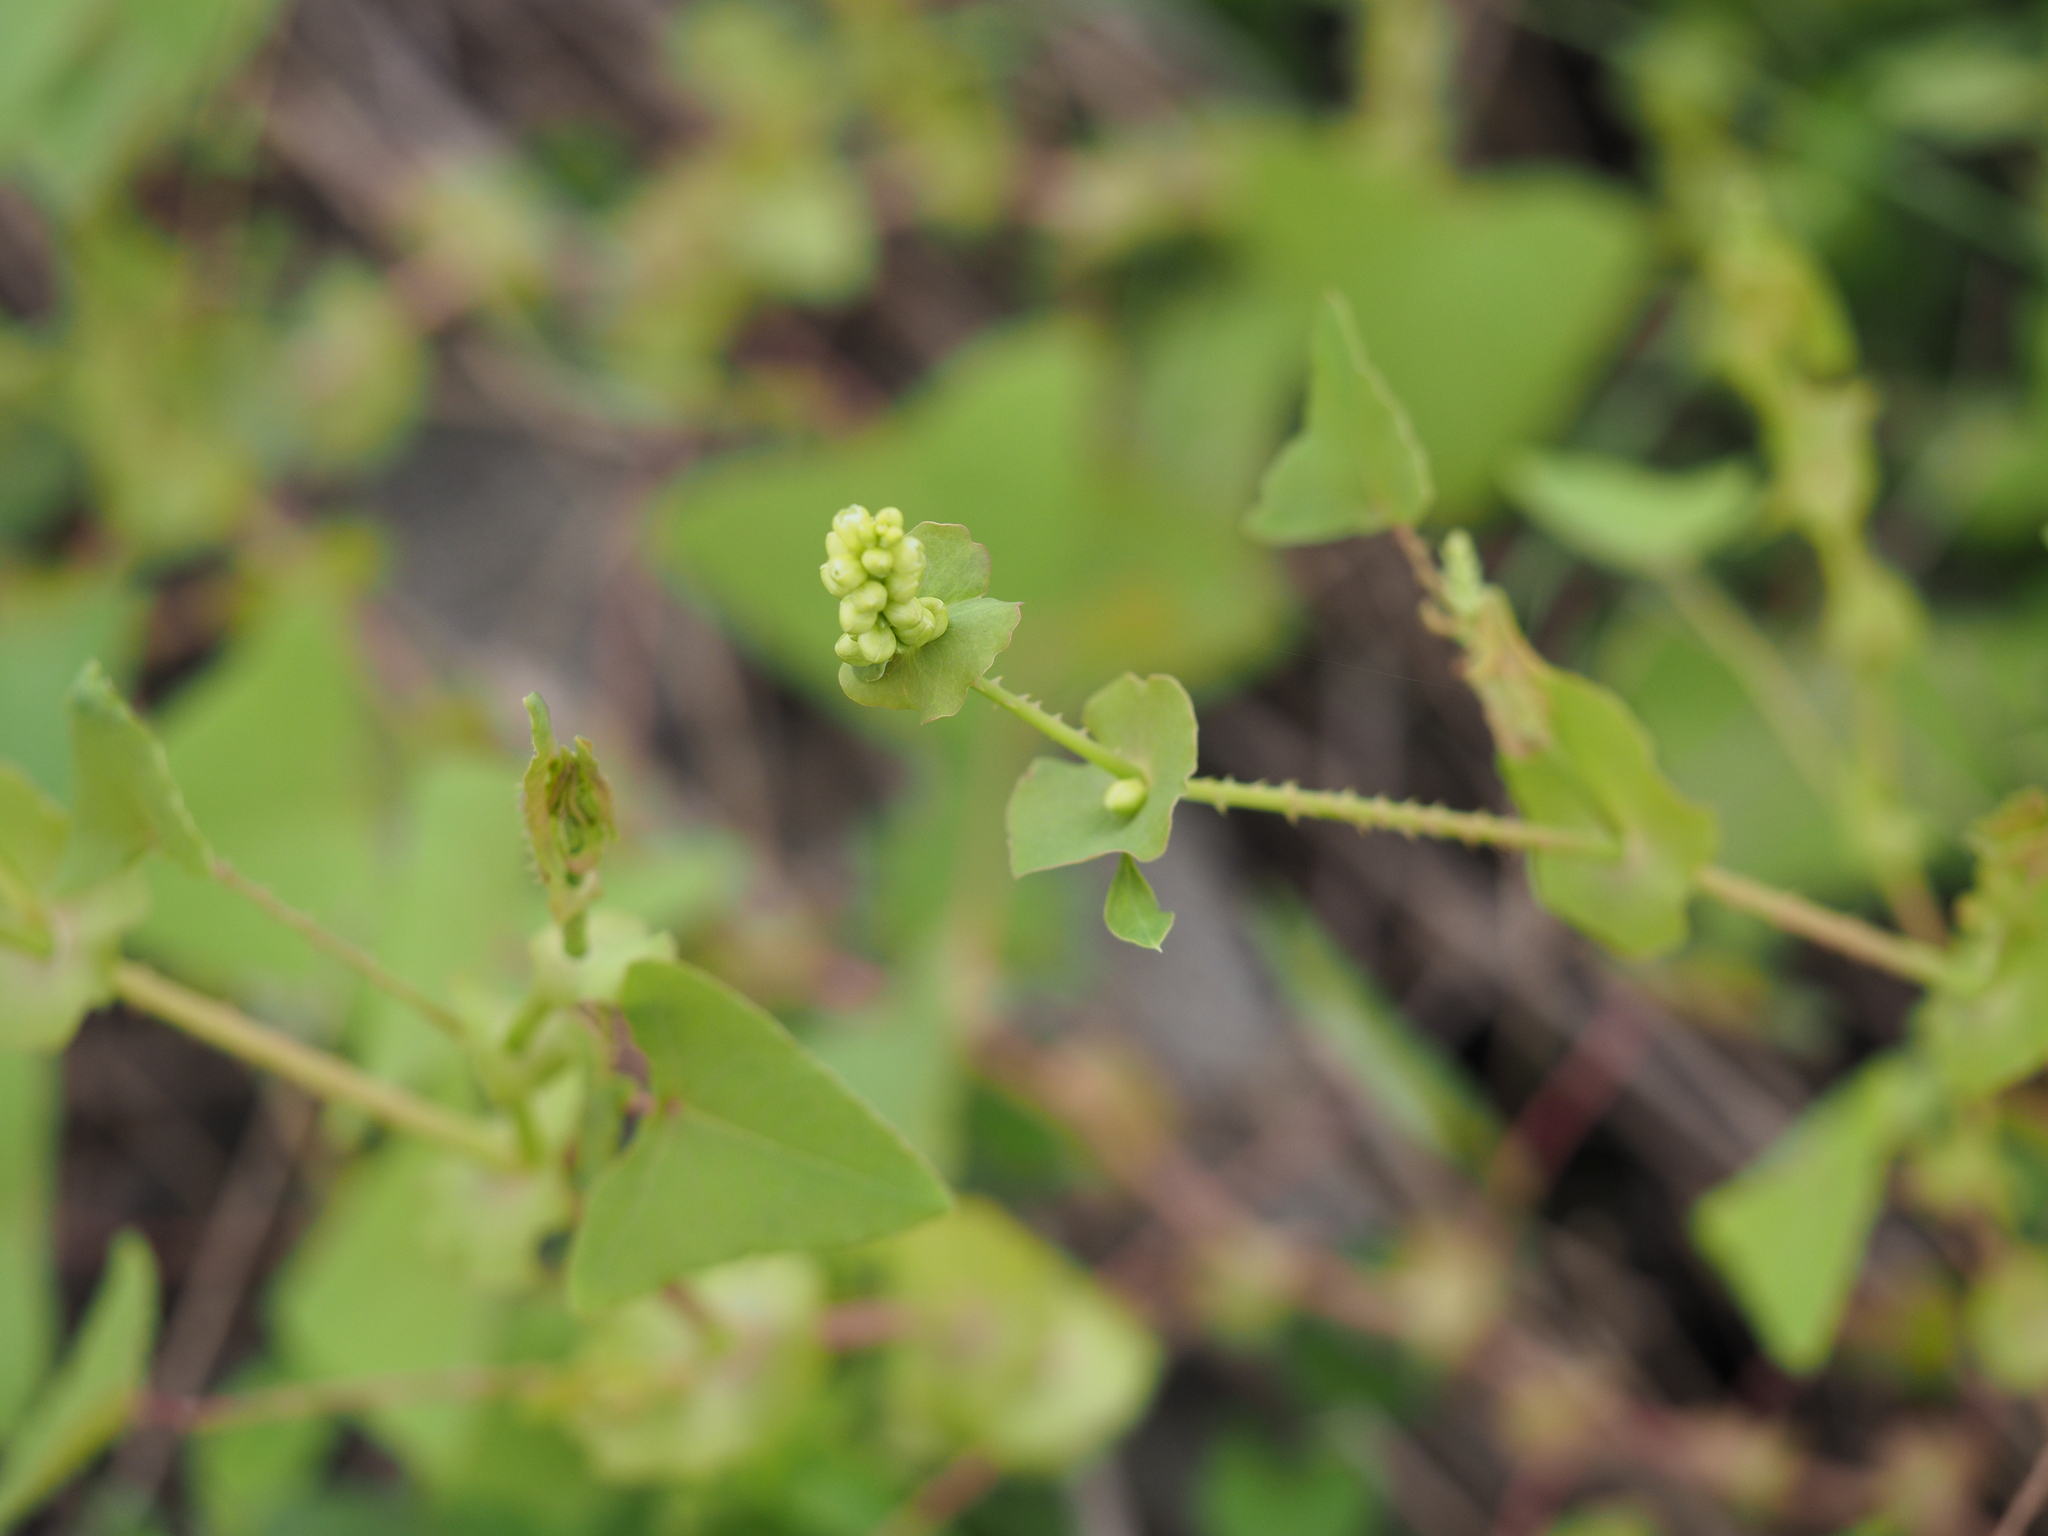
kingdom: Plantae
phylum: Tracheophyta
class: Magnoliopsida
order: Caryophyllales
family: Polygonaceae
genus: Persicaria
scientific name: Persicaria perfoliata
